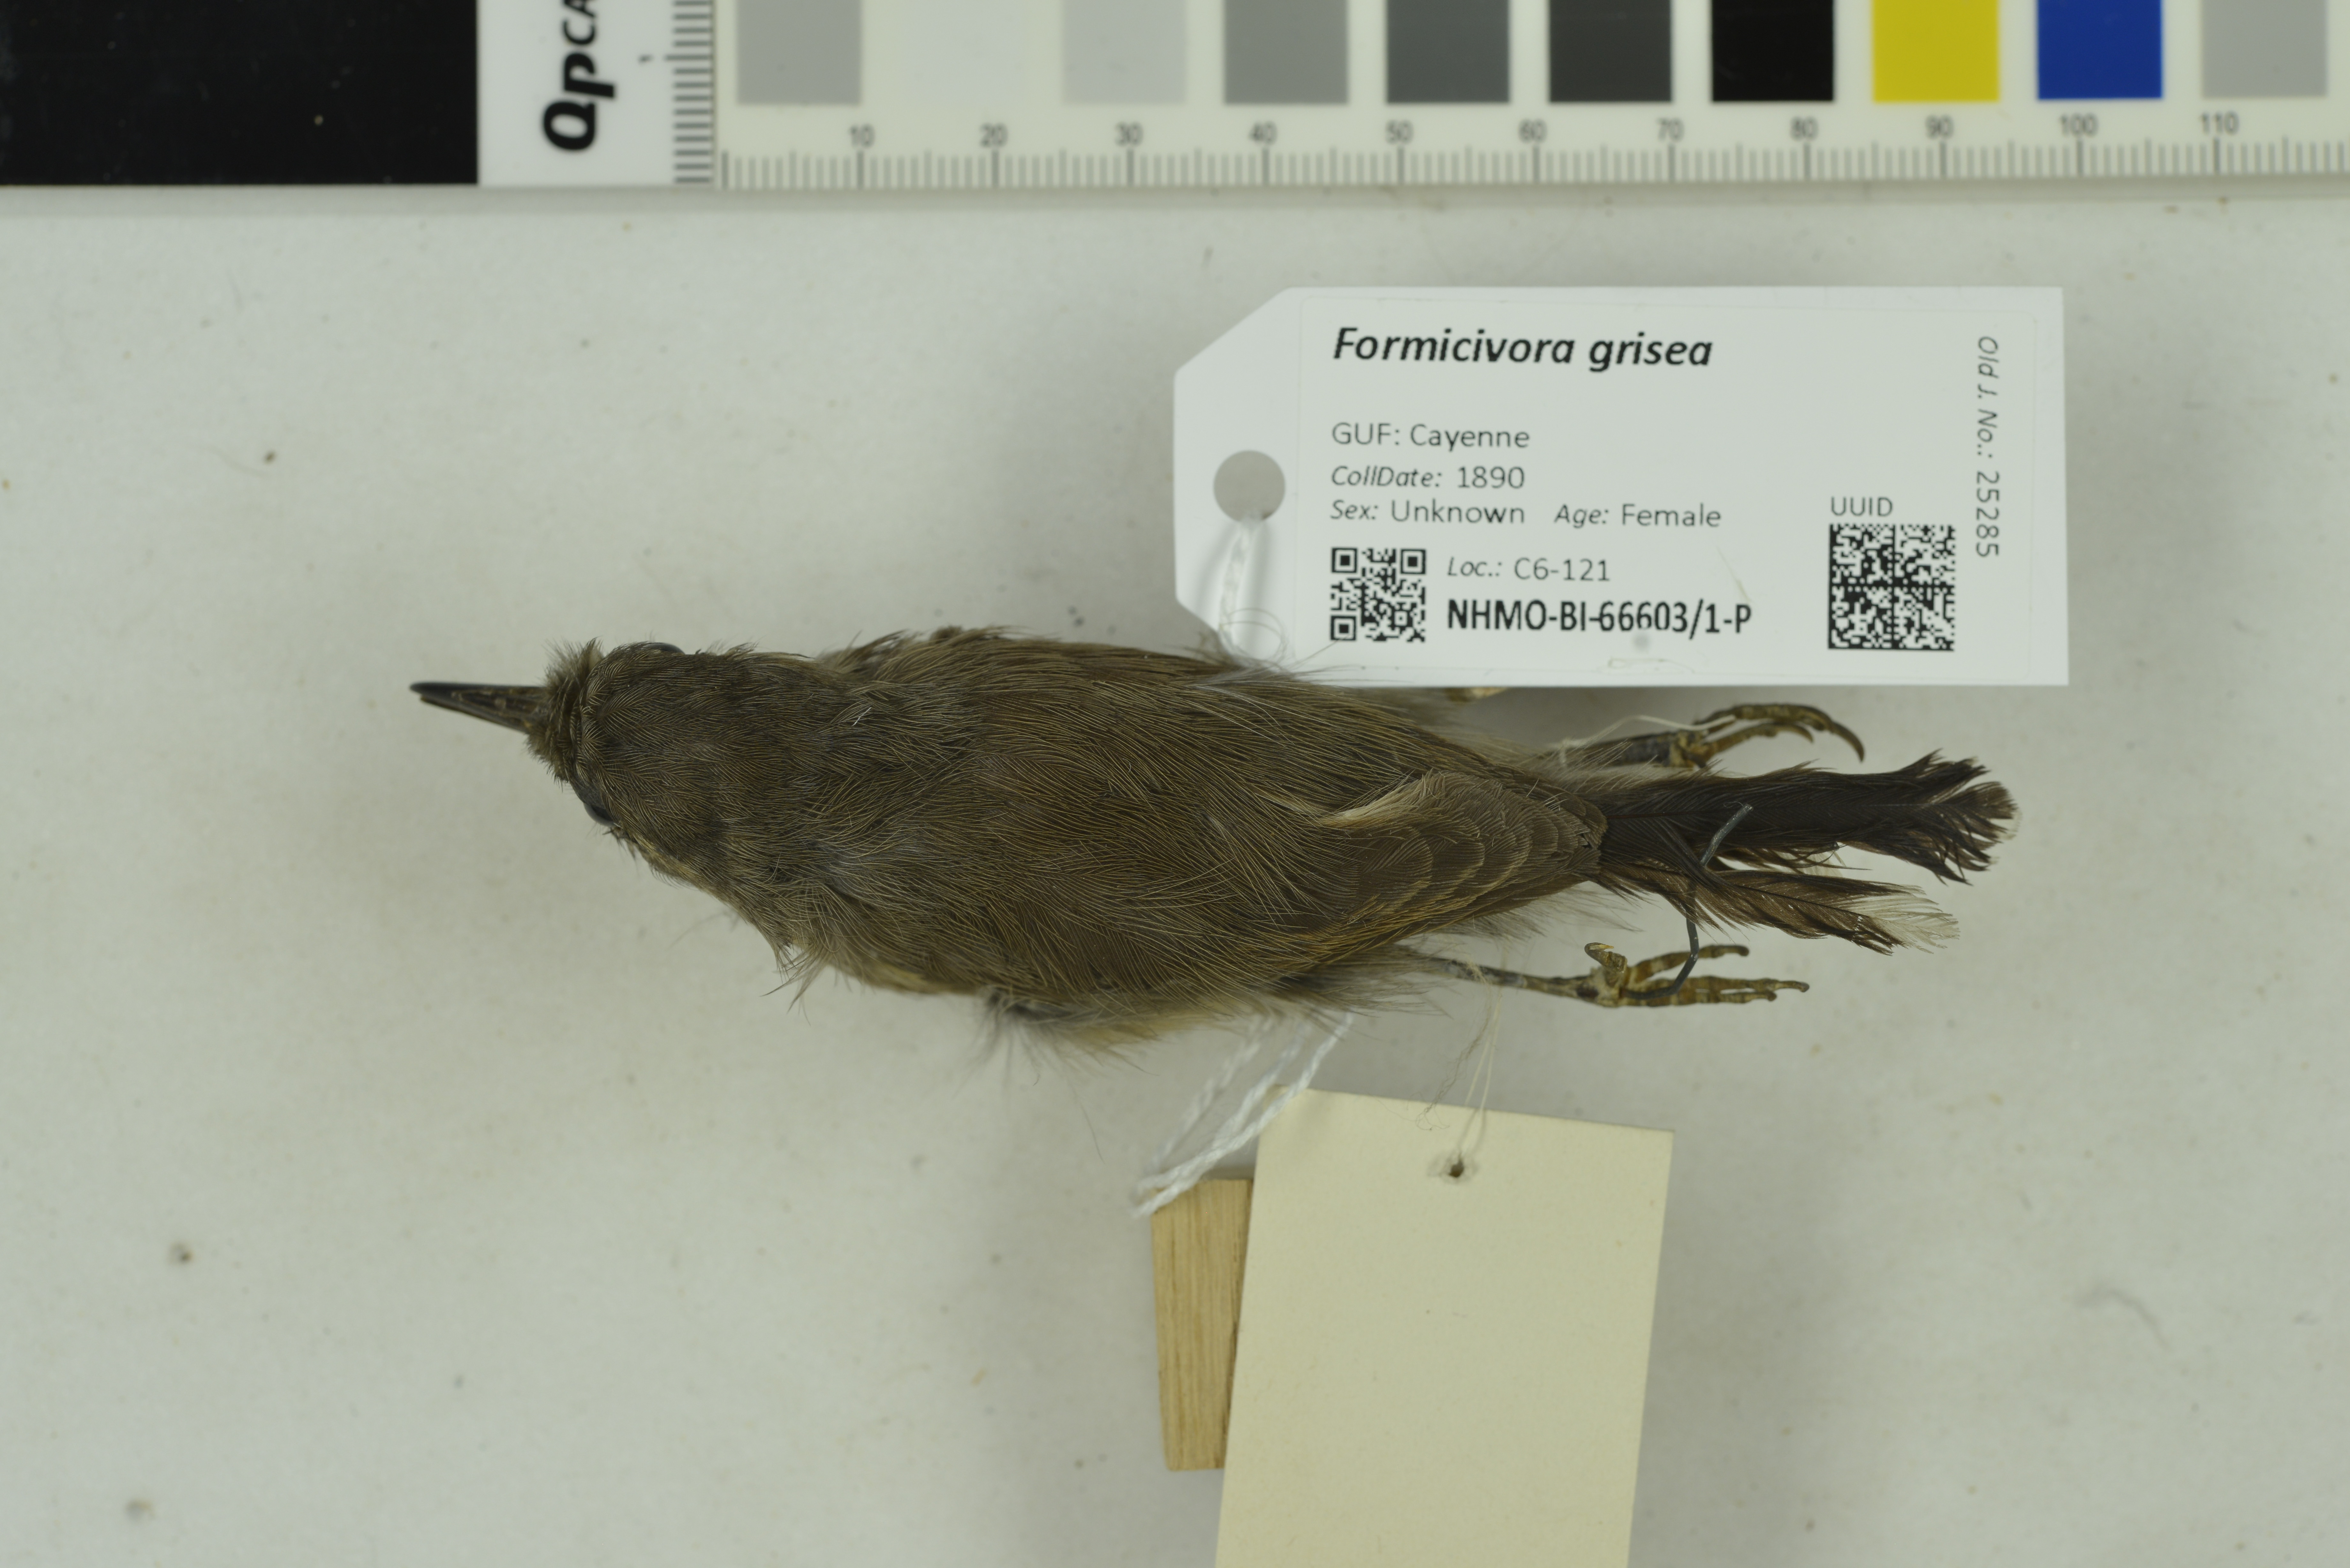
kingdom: Animalia
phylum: Chordata
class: Aves
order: Passeriformes
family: Thamnophilidae
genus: Formicivora
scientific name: Formicivora grisea
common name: Southern white-fringed antwren
